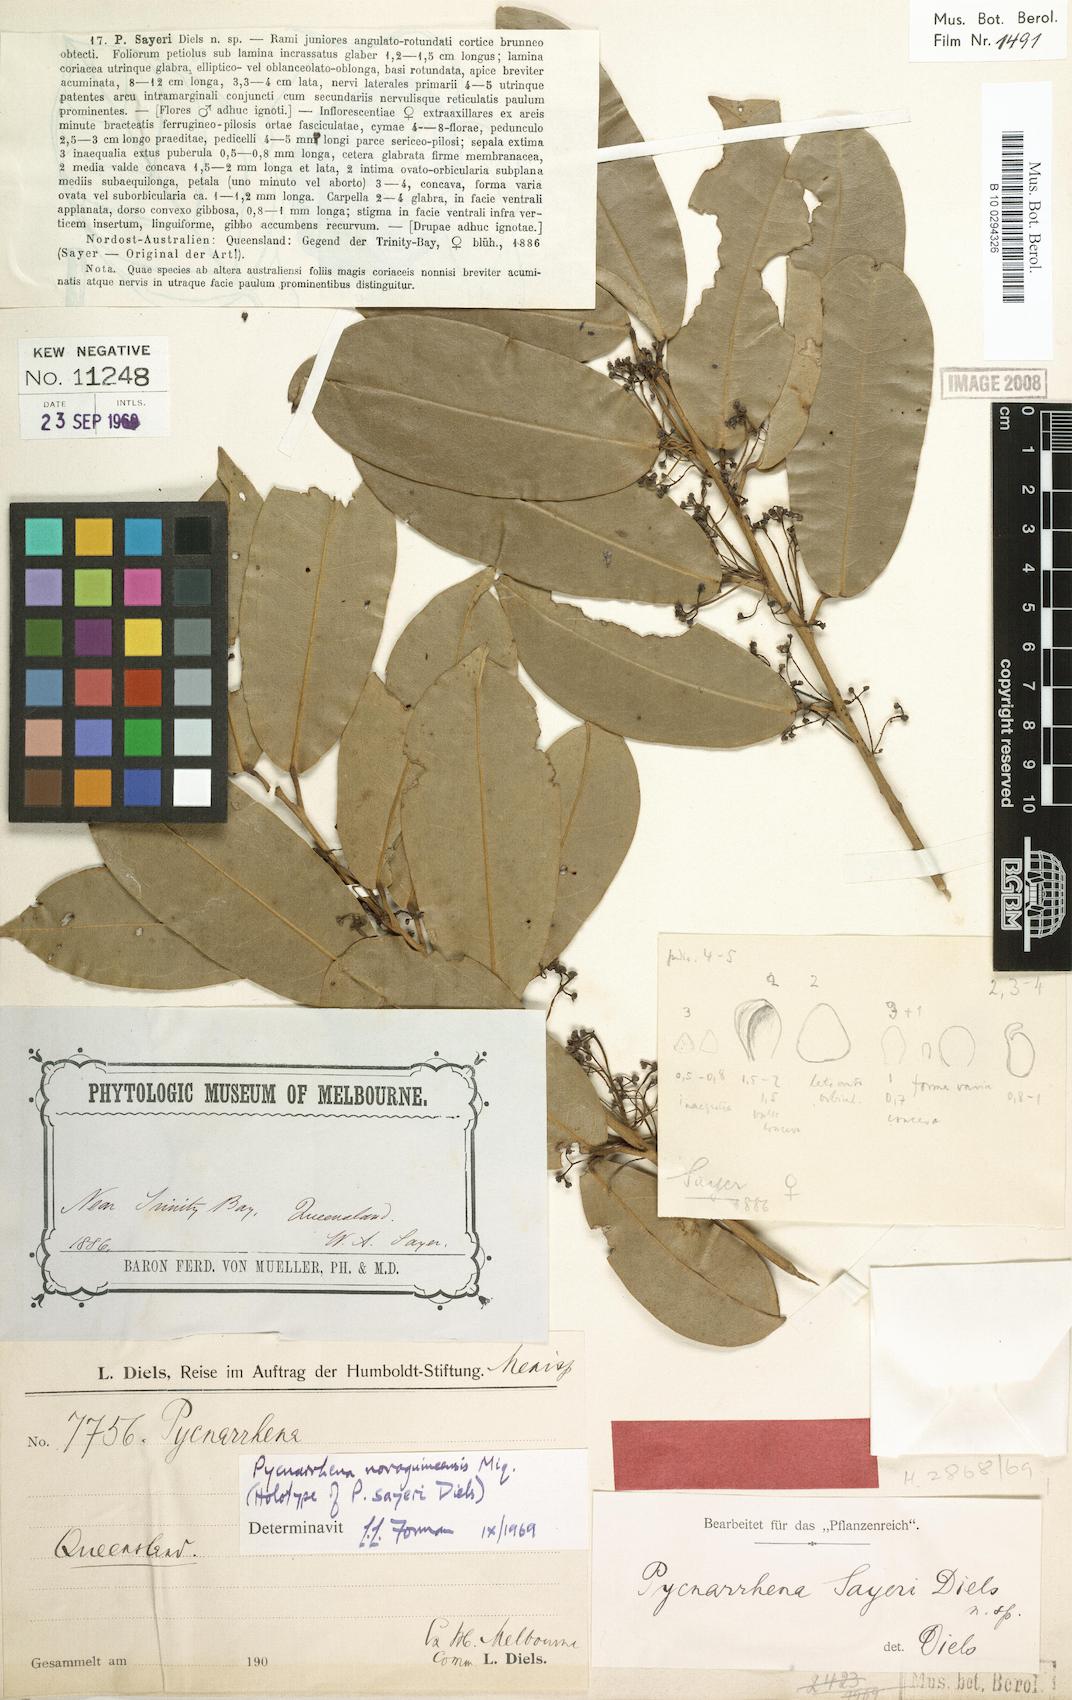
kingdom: Plantae
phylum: Tracheophyta
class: Magnoliopsida
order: Ranunculales
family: Menispermaceae
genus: Pycnarrhena
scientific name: Pycnarrhena novoguineensis
